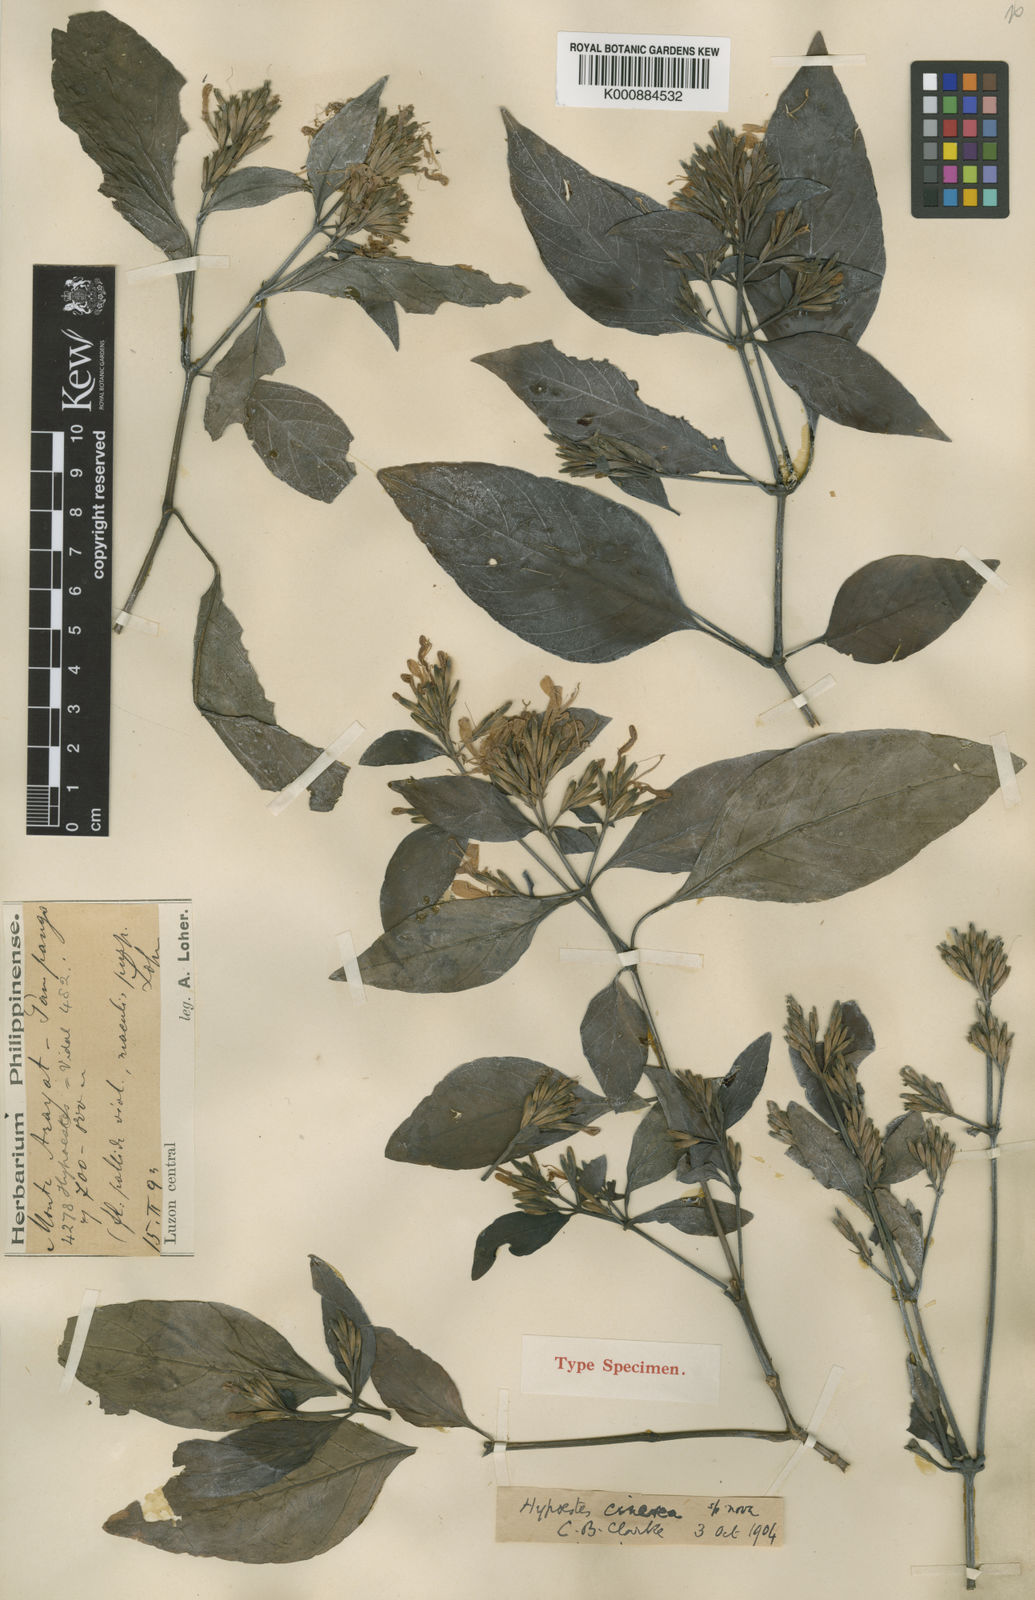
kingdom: Plantae
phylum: Tracheophyta
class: Magnoliopsida
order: Lamiales
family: Acanthaceae
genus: Hypoestes
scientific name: Hypoestes cinerea
